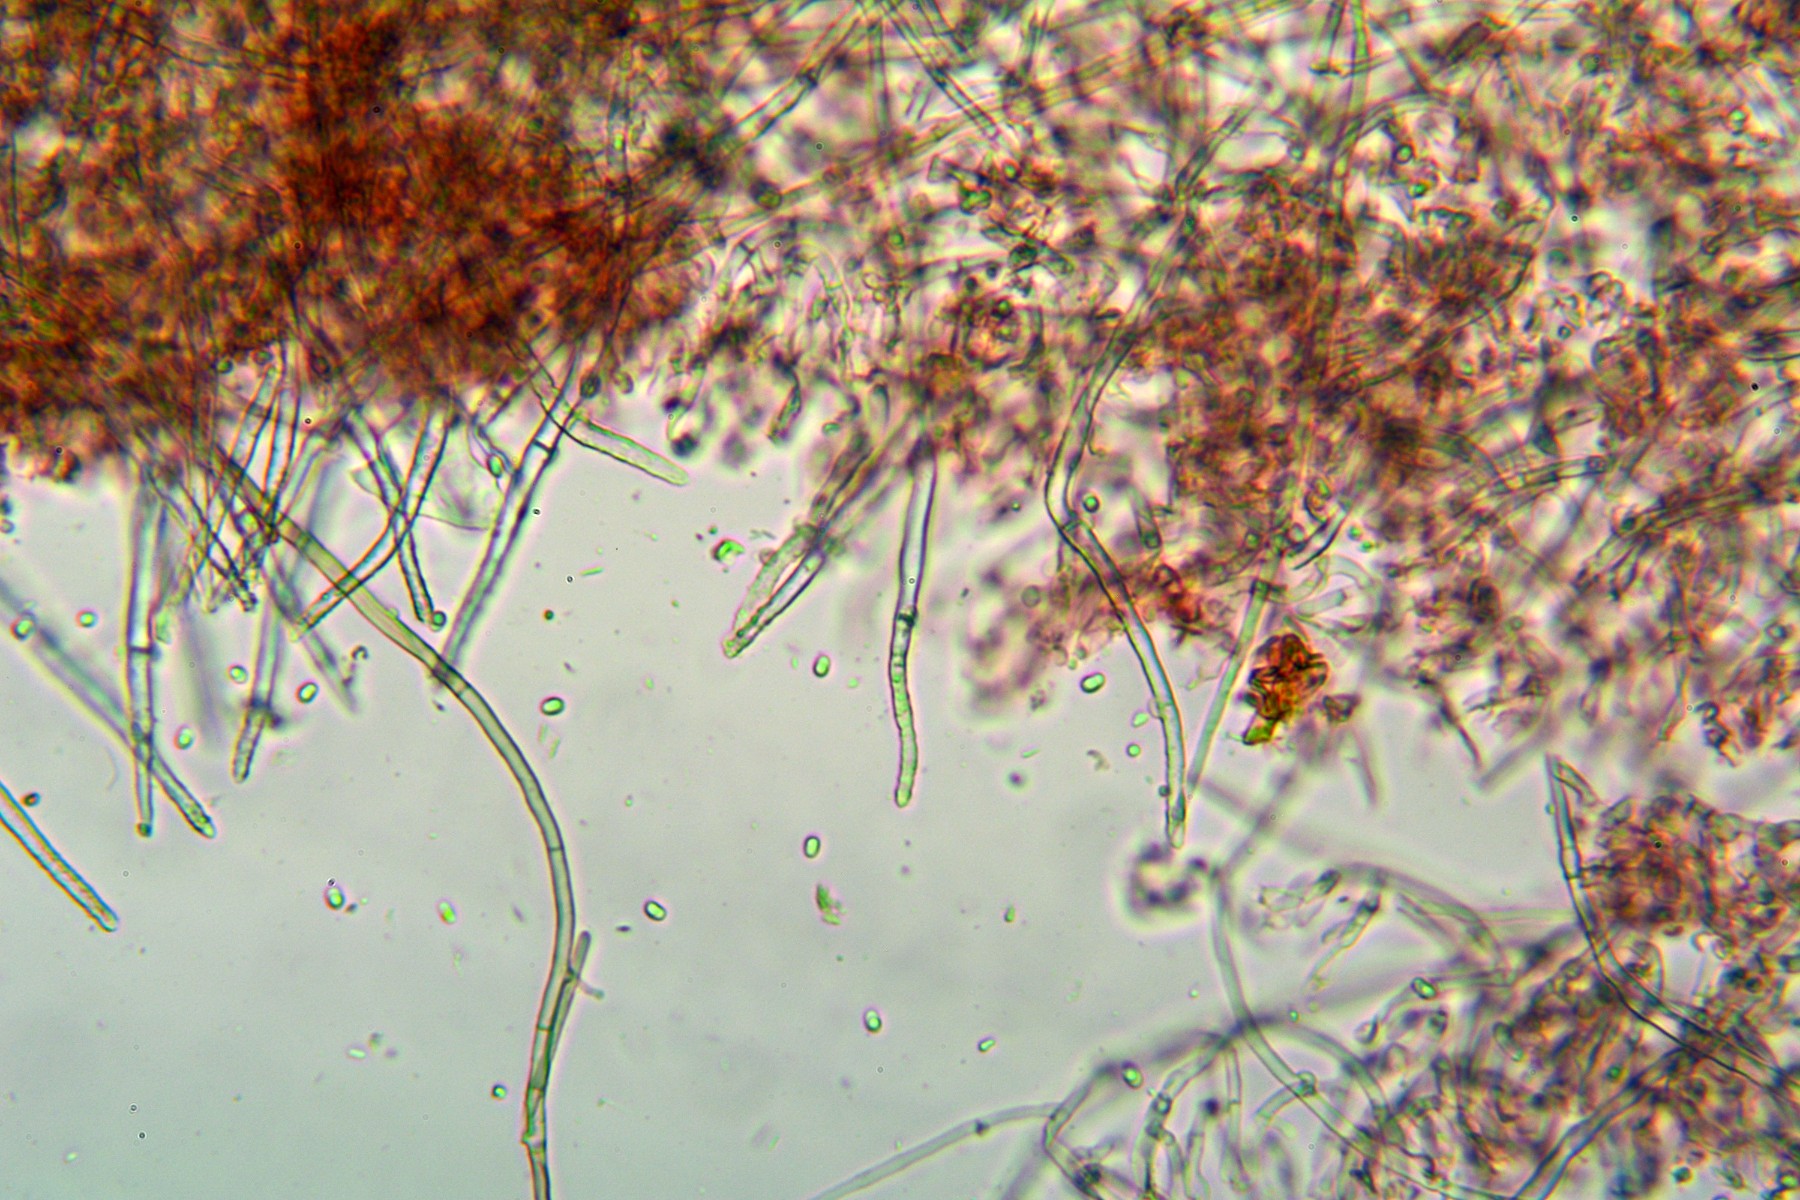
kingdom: Fungi
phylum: Basidiomycota
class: Agaricomycetes
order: Atheliales
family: Atheliaceae
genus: Amphinema
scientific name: Amphinema byssoides
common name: almindelig rodhinde
